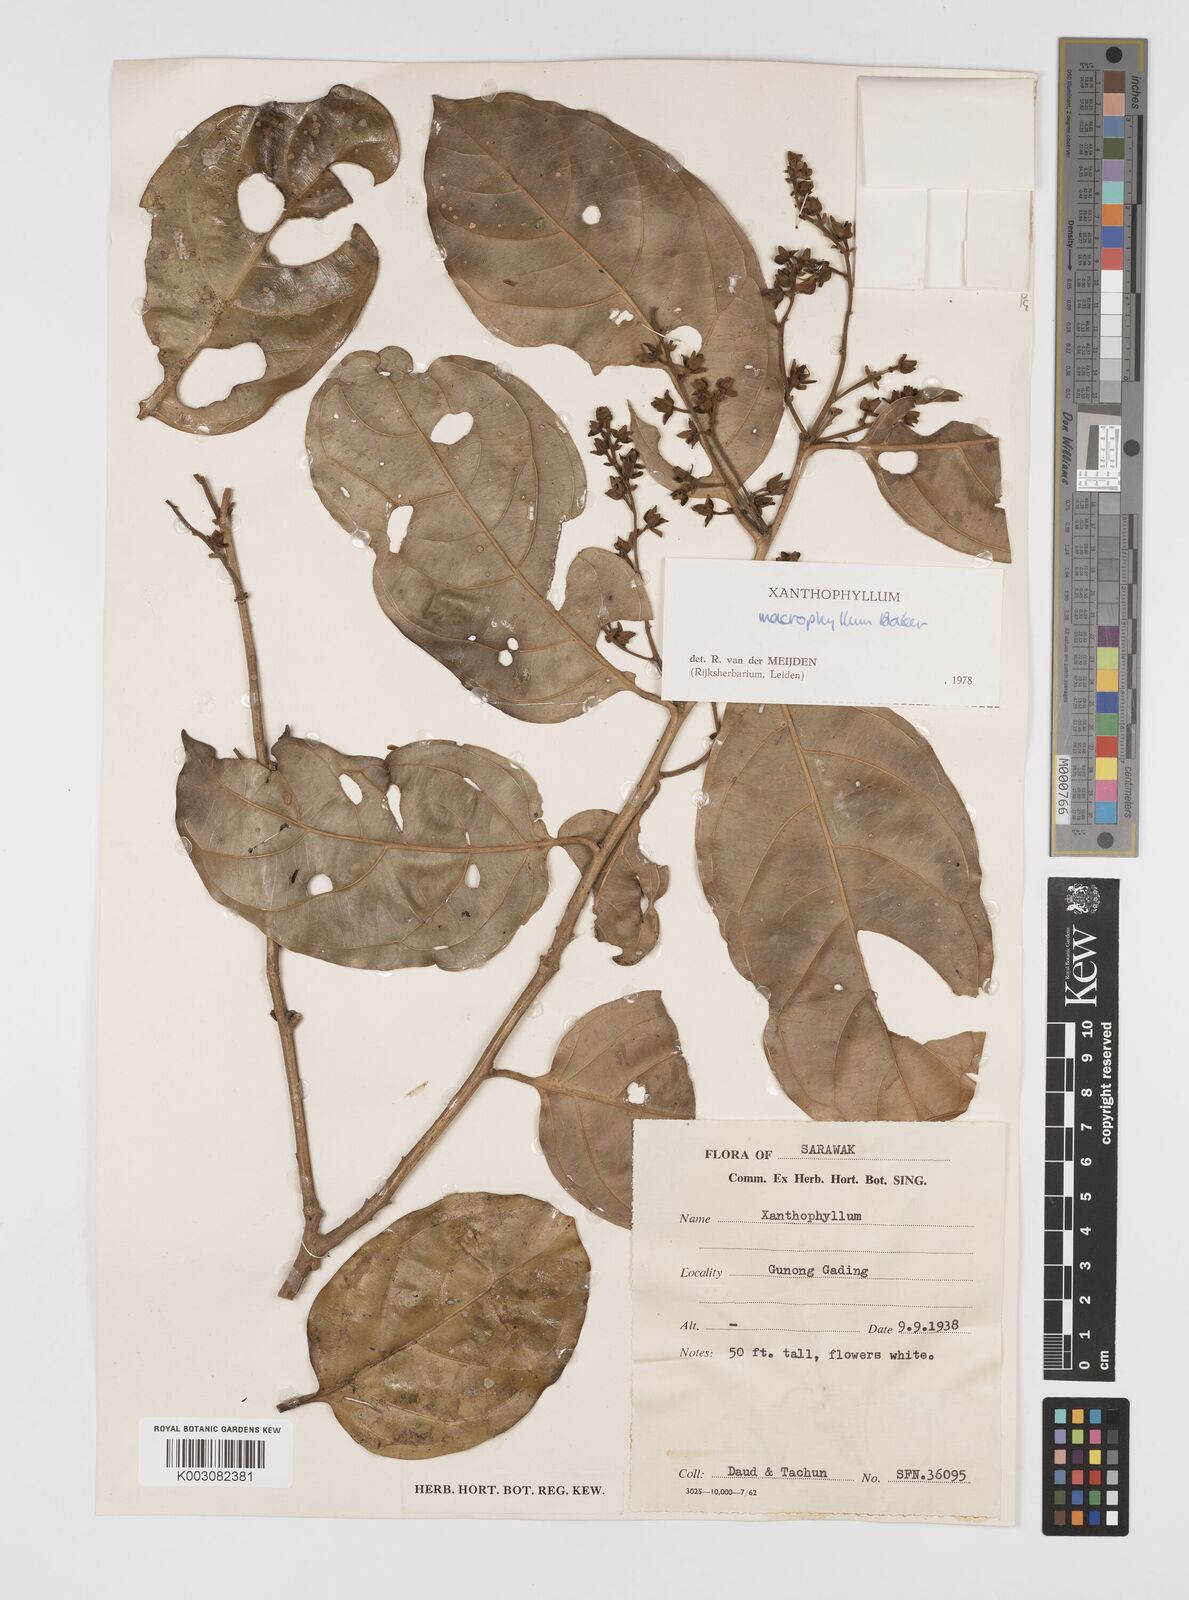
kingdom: Plantae
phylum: Tracheophyta
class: Magnoliopsida
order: Fabales
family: Polygalaceae
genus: Xanthophyllum
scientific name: Xanthophyllum macrophyllum
